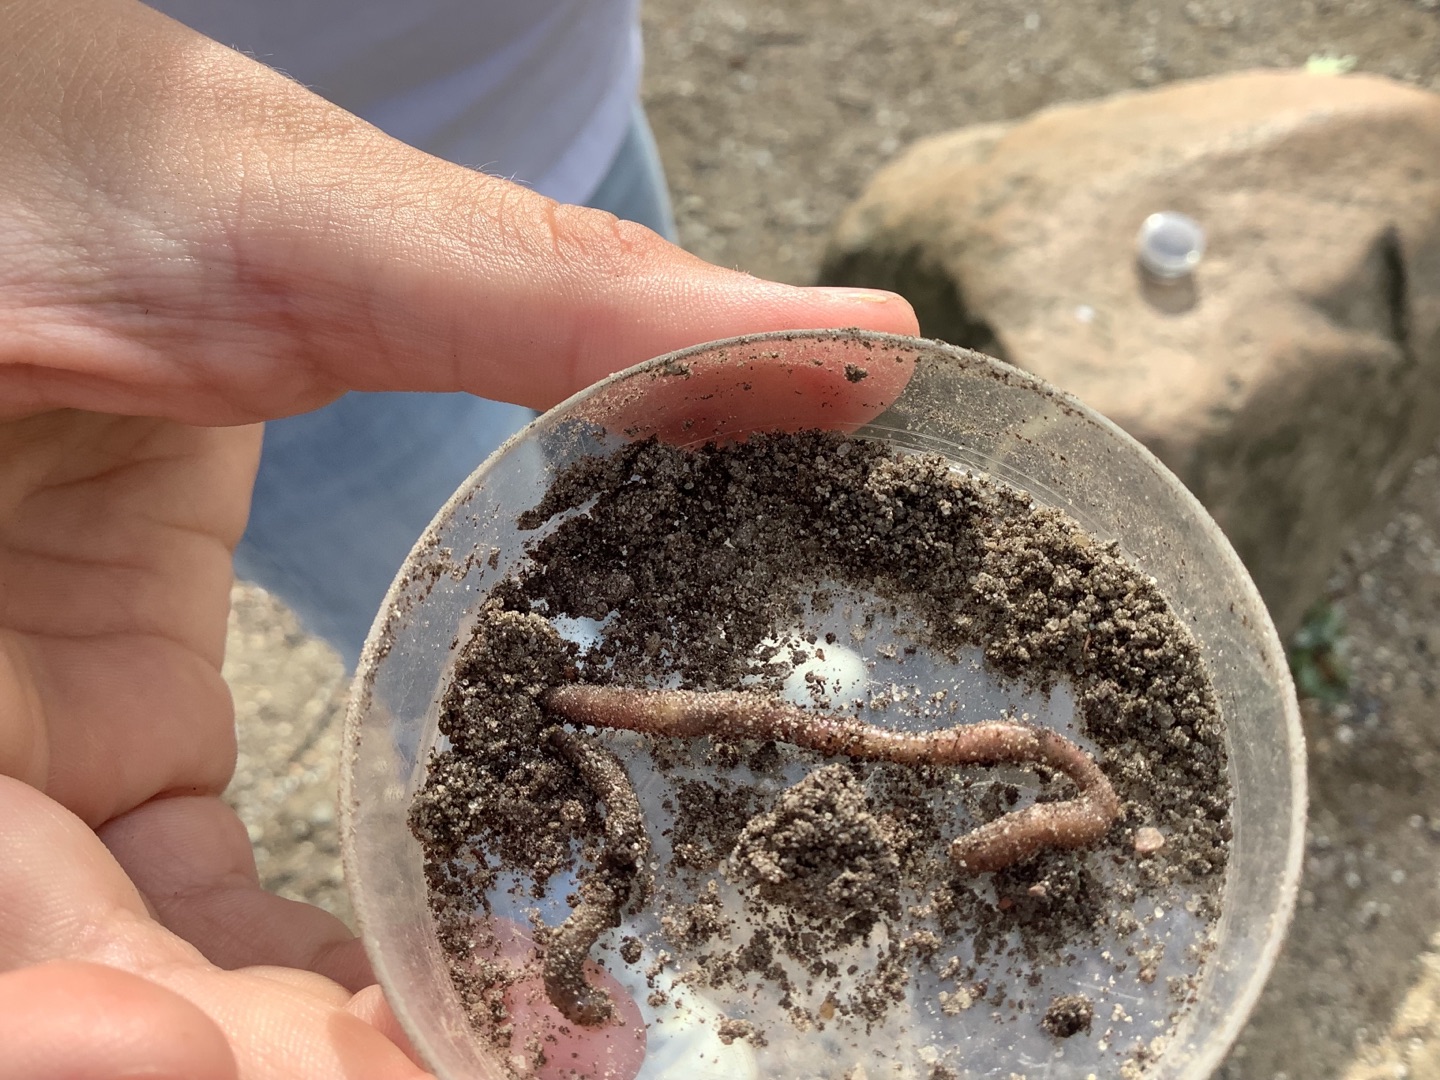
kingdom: Animalia
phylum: Annelida
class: Clitellata
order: Crassiclitellata
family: Lumbricidae
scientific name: Lumbricidae
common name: Regnorme
